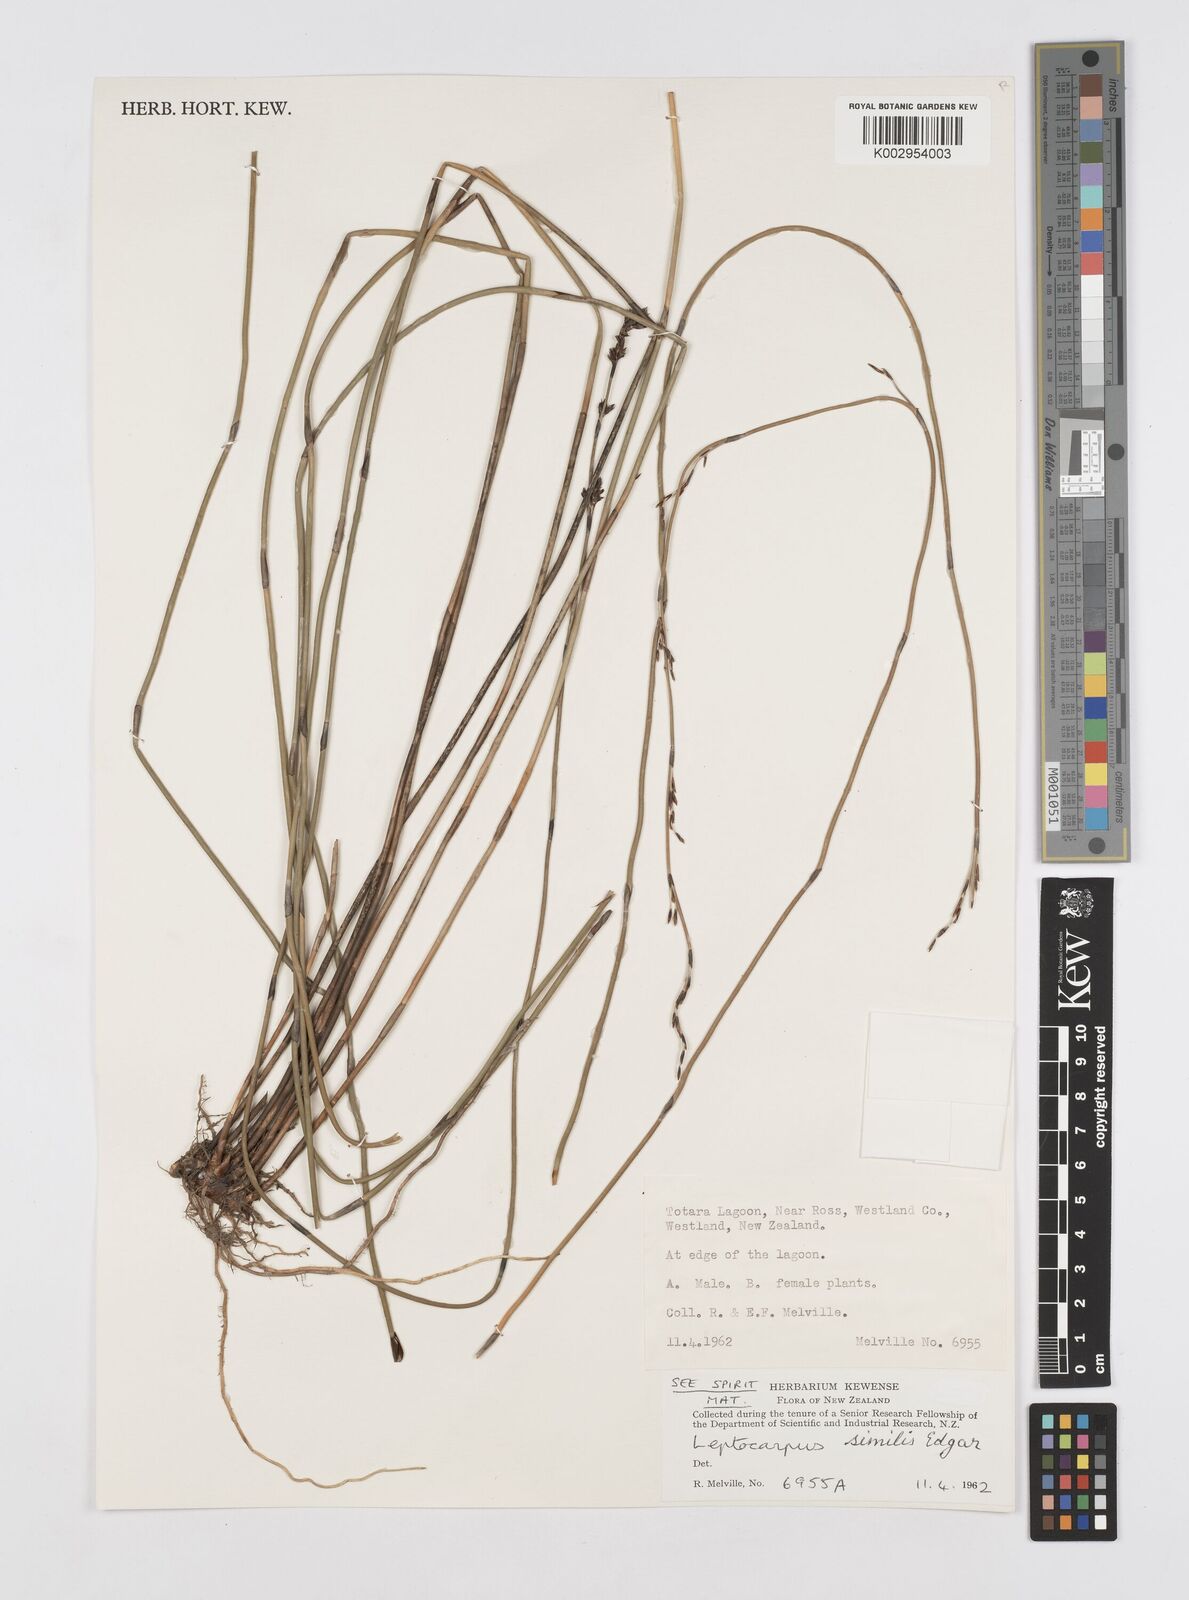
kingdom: Plantae
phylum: Tracheophyta
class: Liliopsida
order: Poales
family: Restionaceae
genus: Apodasmia
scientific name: Apodasmia similis
